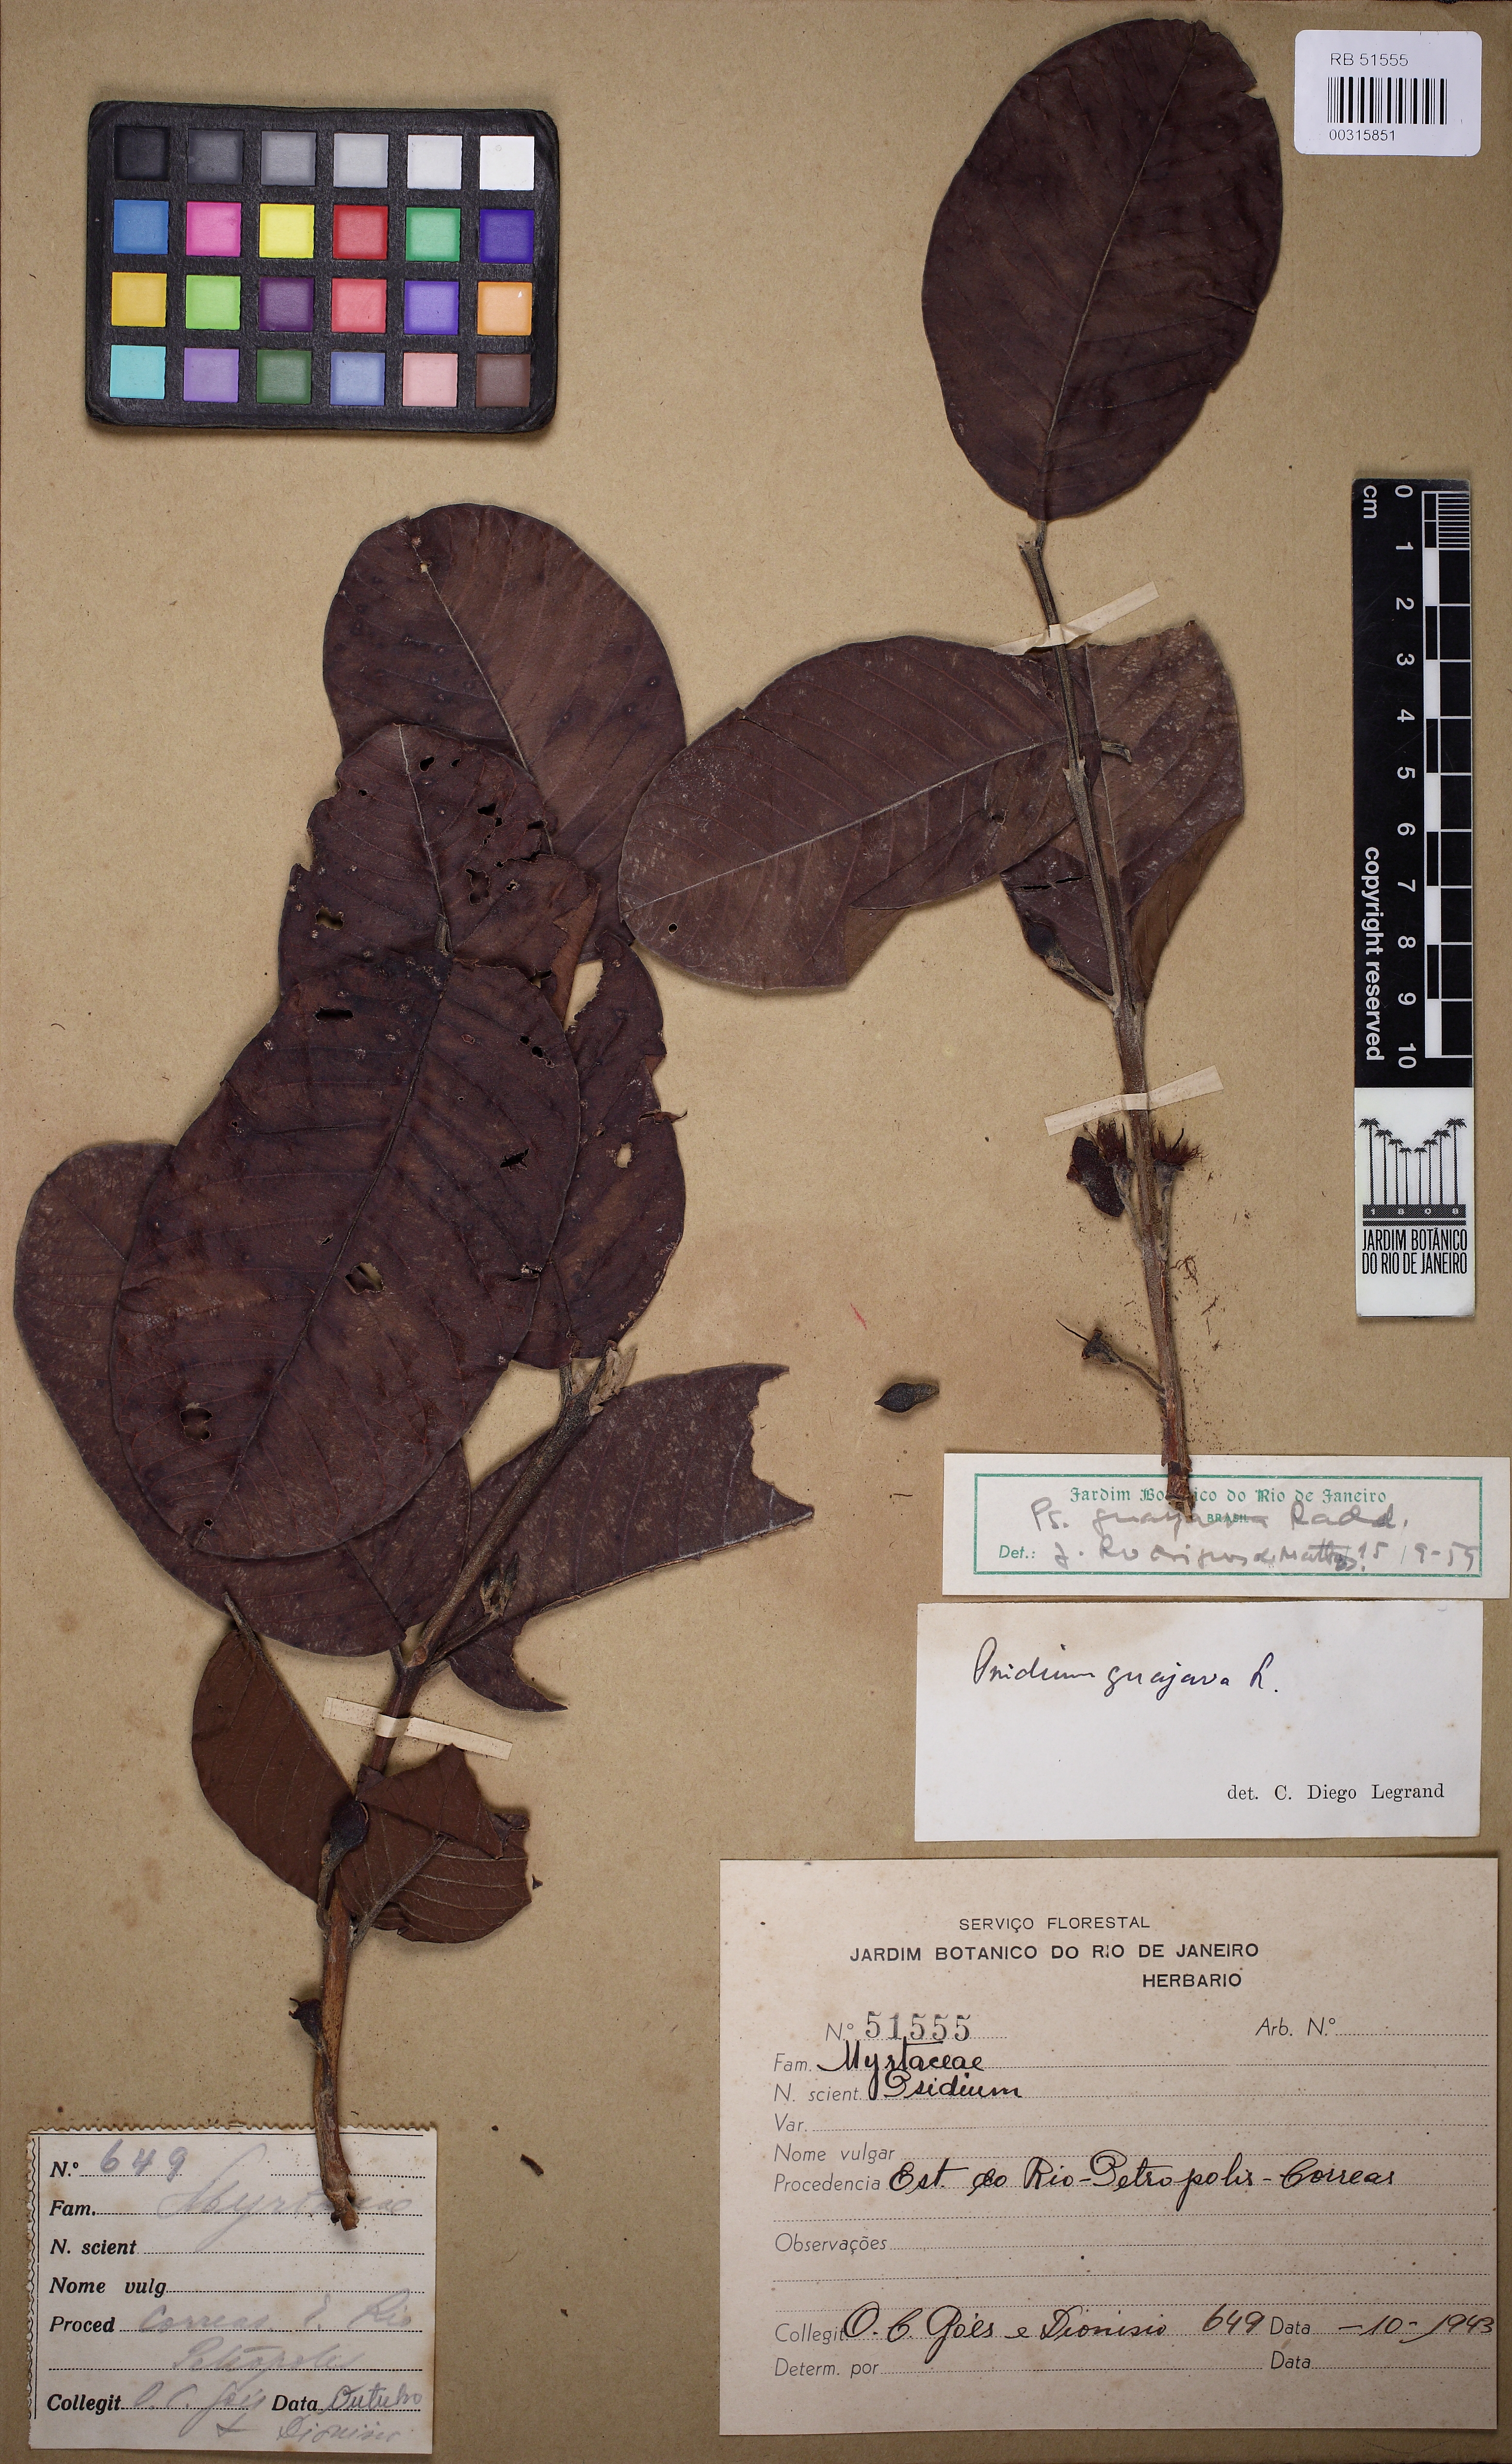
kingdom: Plantae
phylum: Tracheophyta
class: Magnoliopsida
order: Myrtales
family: Myrtaceae
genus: Psidium
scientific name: Psidium guajava
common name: Guava
